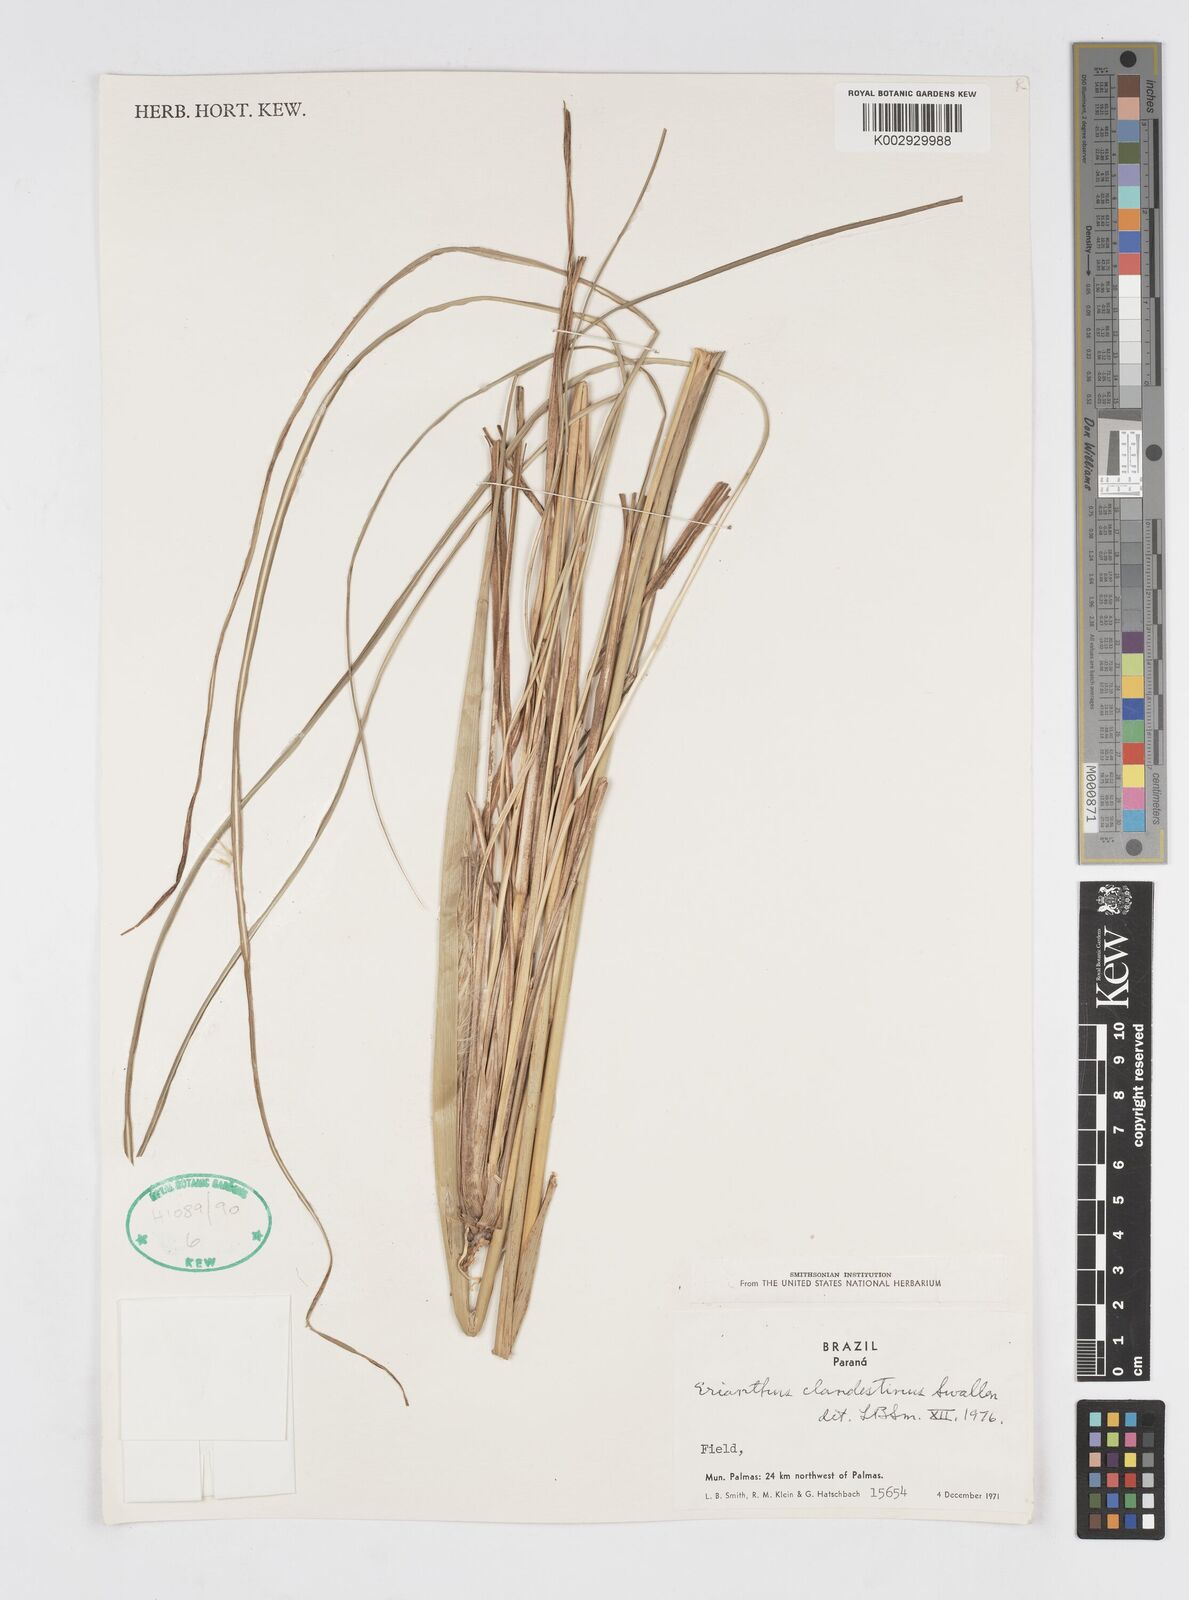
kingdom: Plantae
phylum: Tracheophyta
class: Liliopsida
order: Poales
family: Poaceae
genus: Erianthus
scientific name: Erianthus trinii
